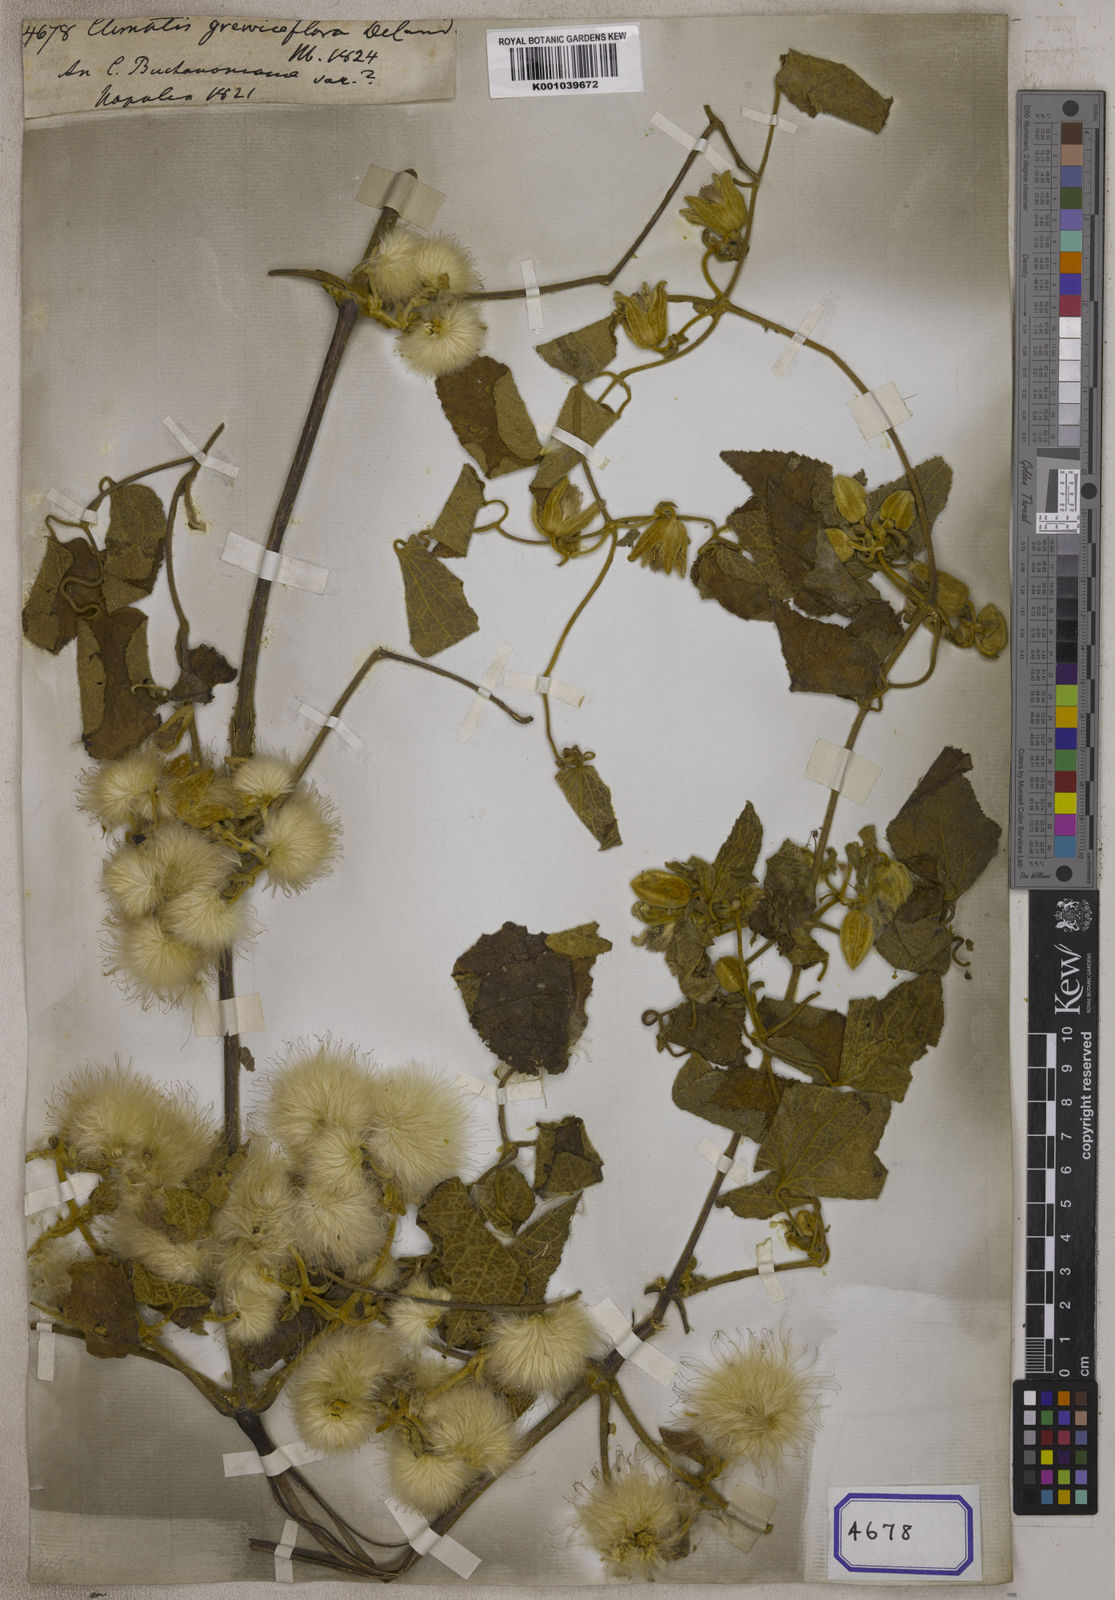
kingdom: Plantae
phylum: Tracheophyta
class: Magnoliopsida
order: Ranunculales
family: Ranunculaceae
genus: Clematis
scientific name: Clematis grewiiflora
